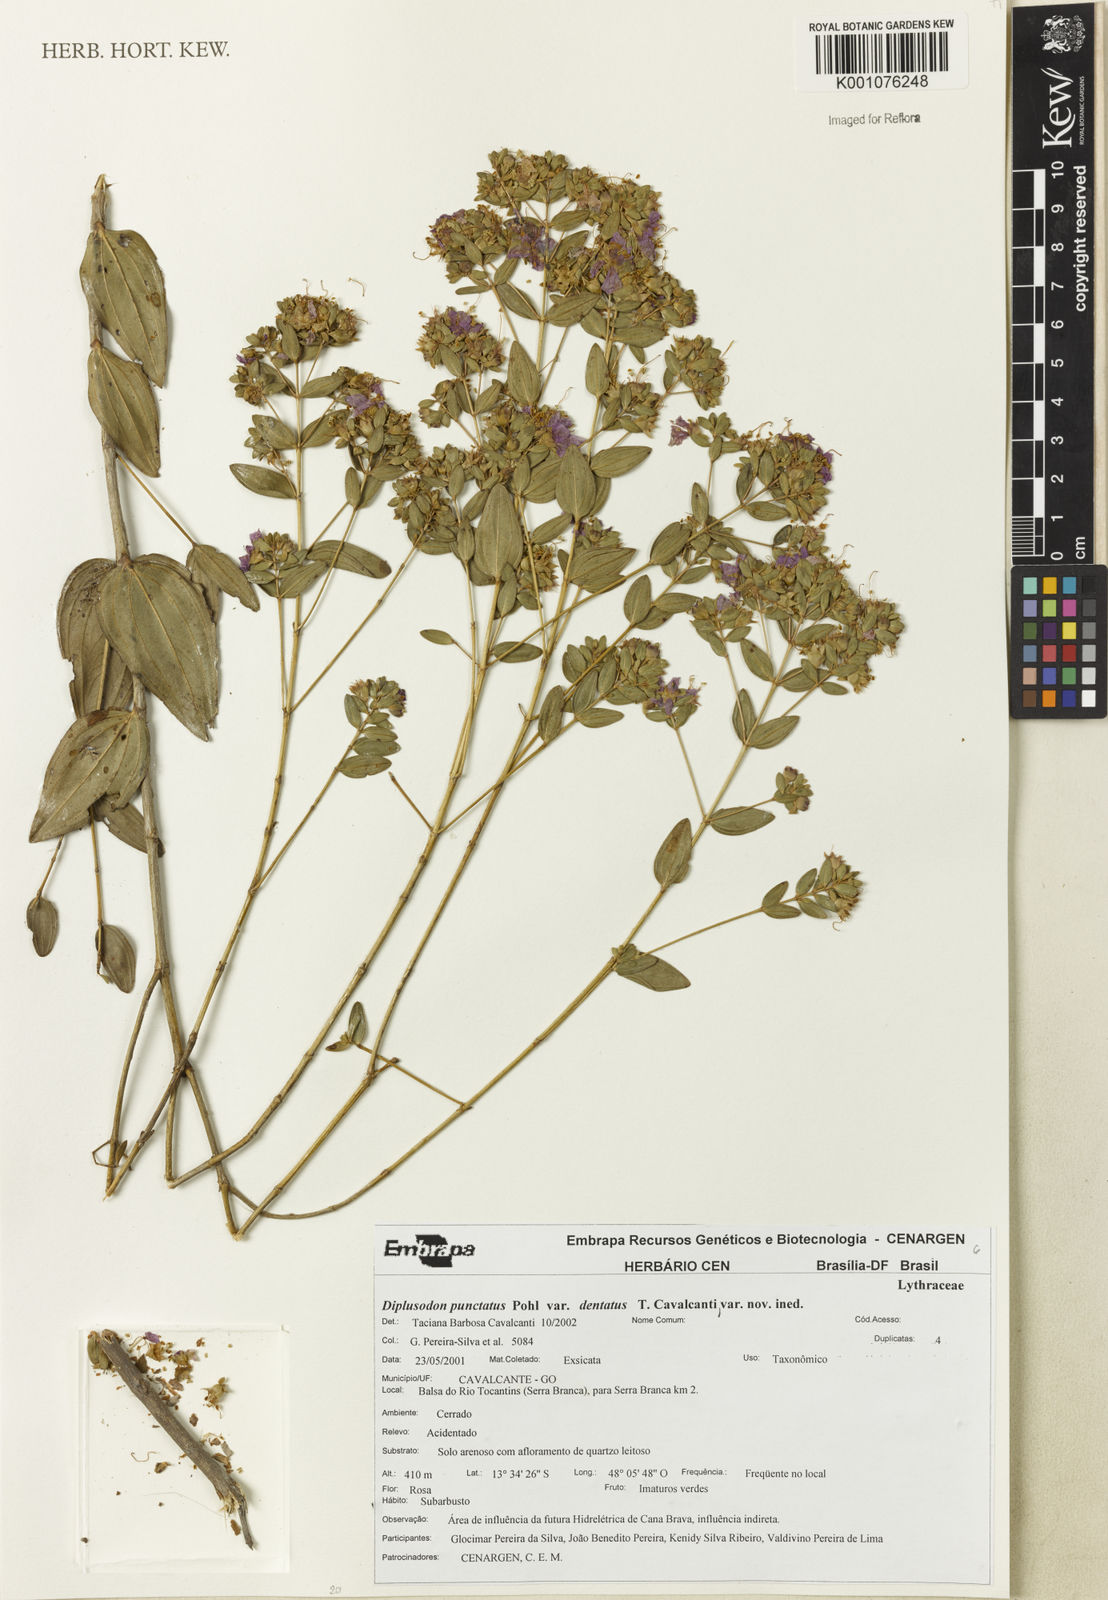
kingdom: Plantae
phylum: Tracheophyta
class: Magnoliopsida
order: Myrtales
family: Lythraceae
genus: Diplusodon
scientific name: Diplusodon punctatus
